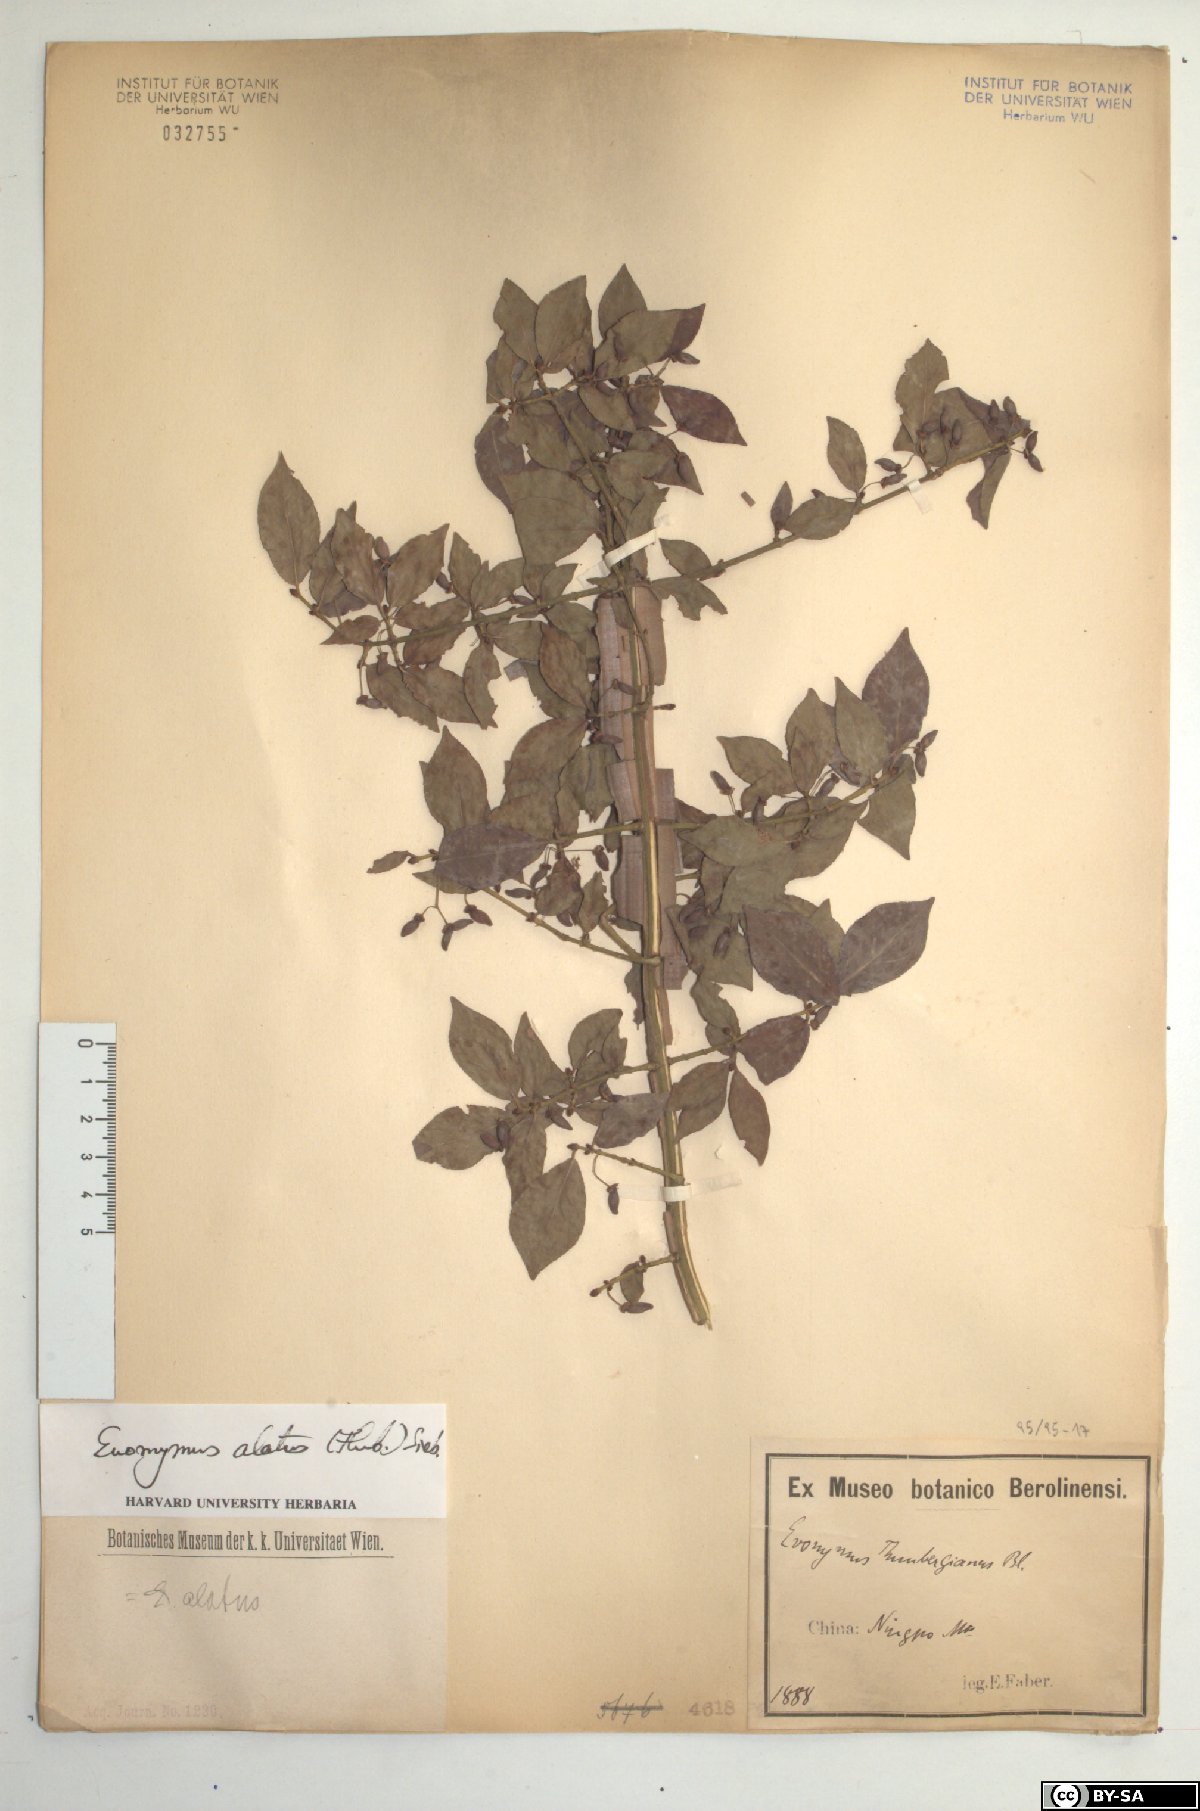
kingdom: Plantae
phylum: Tracheophyta
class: Magnoliopsida
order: Celastrales
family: Celastraceae
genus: Euonymus
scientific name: Euonymus alatus
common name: Winged euonymus
